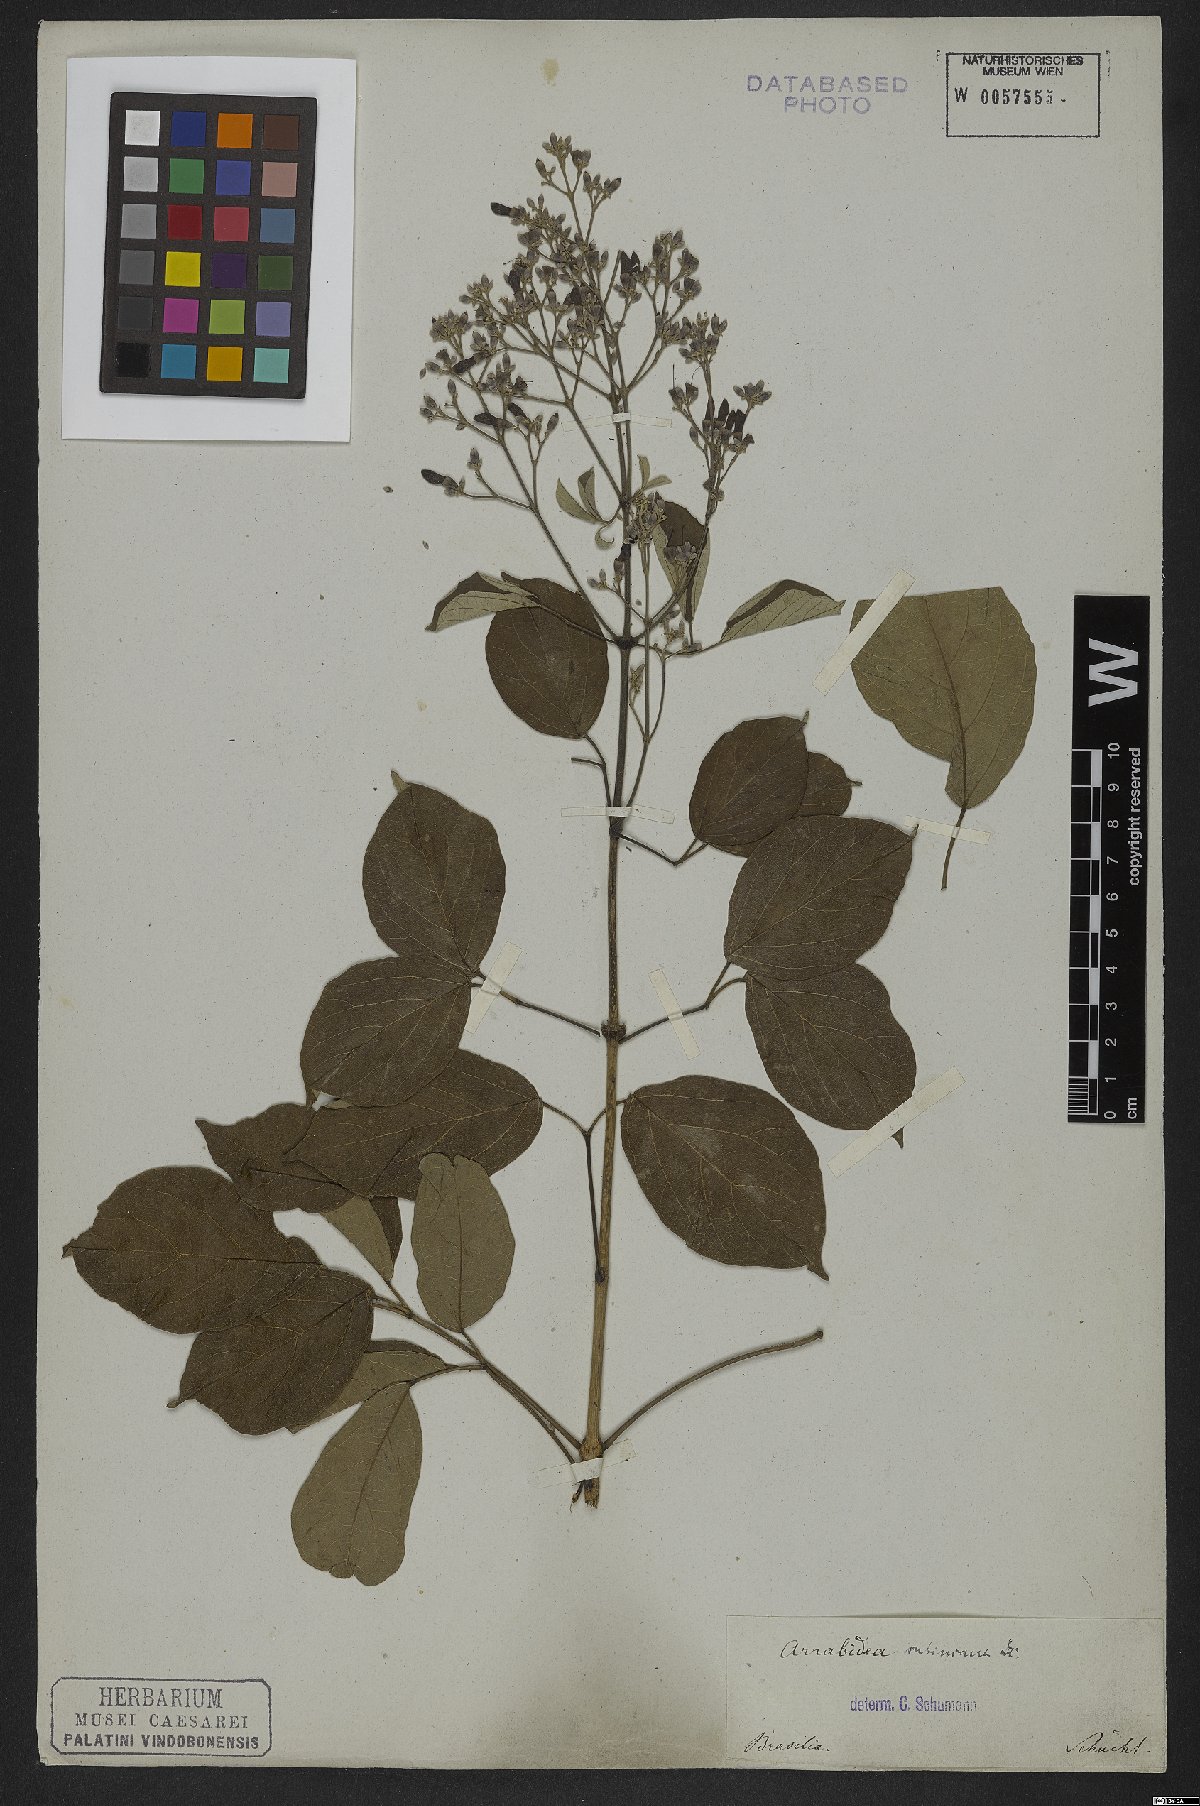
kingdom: Plantae
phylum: Tracheophyta
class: Magnoliopsida
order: Lamiales
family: Bignoniaceae
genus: Fridericia
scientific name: Fridericia subincana
